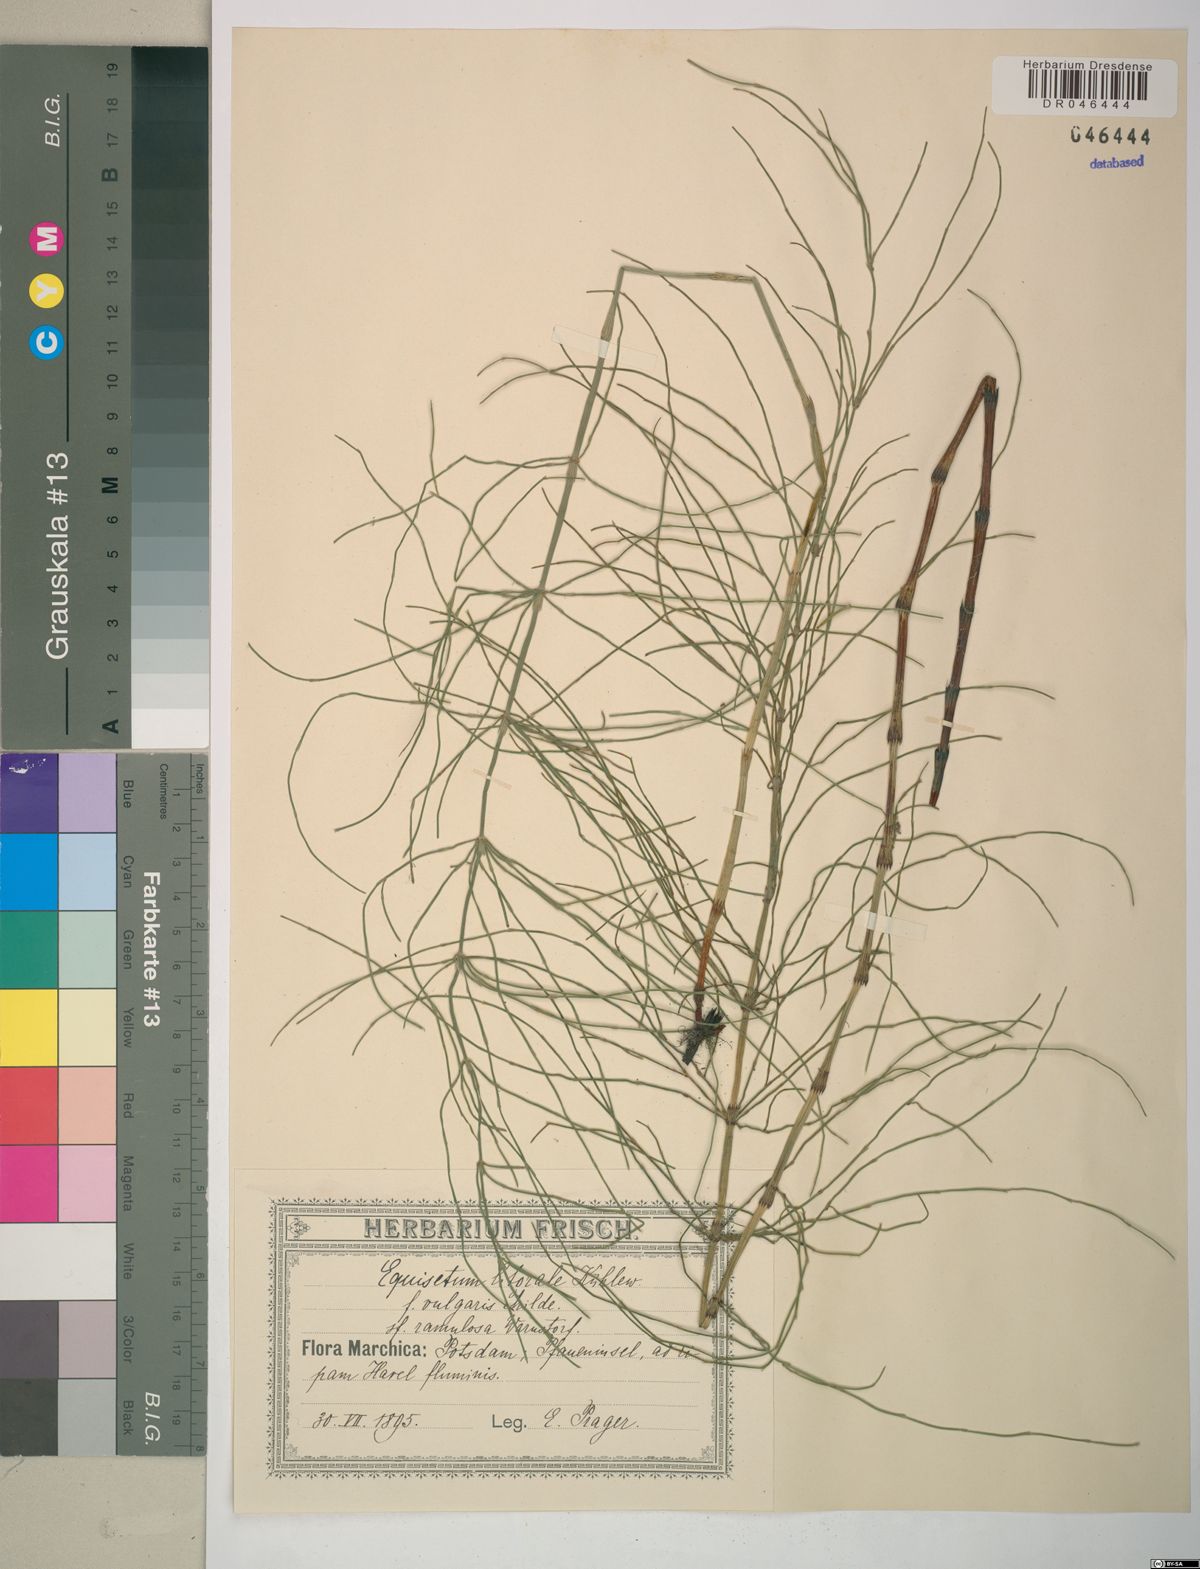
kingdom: Plantae
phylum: Tracheophyta
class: Polypodiopsida
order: Equisetales
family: Equisetaceae
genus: Equisetum
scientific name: Equisetum litorale
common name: Littoral horsetail
